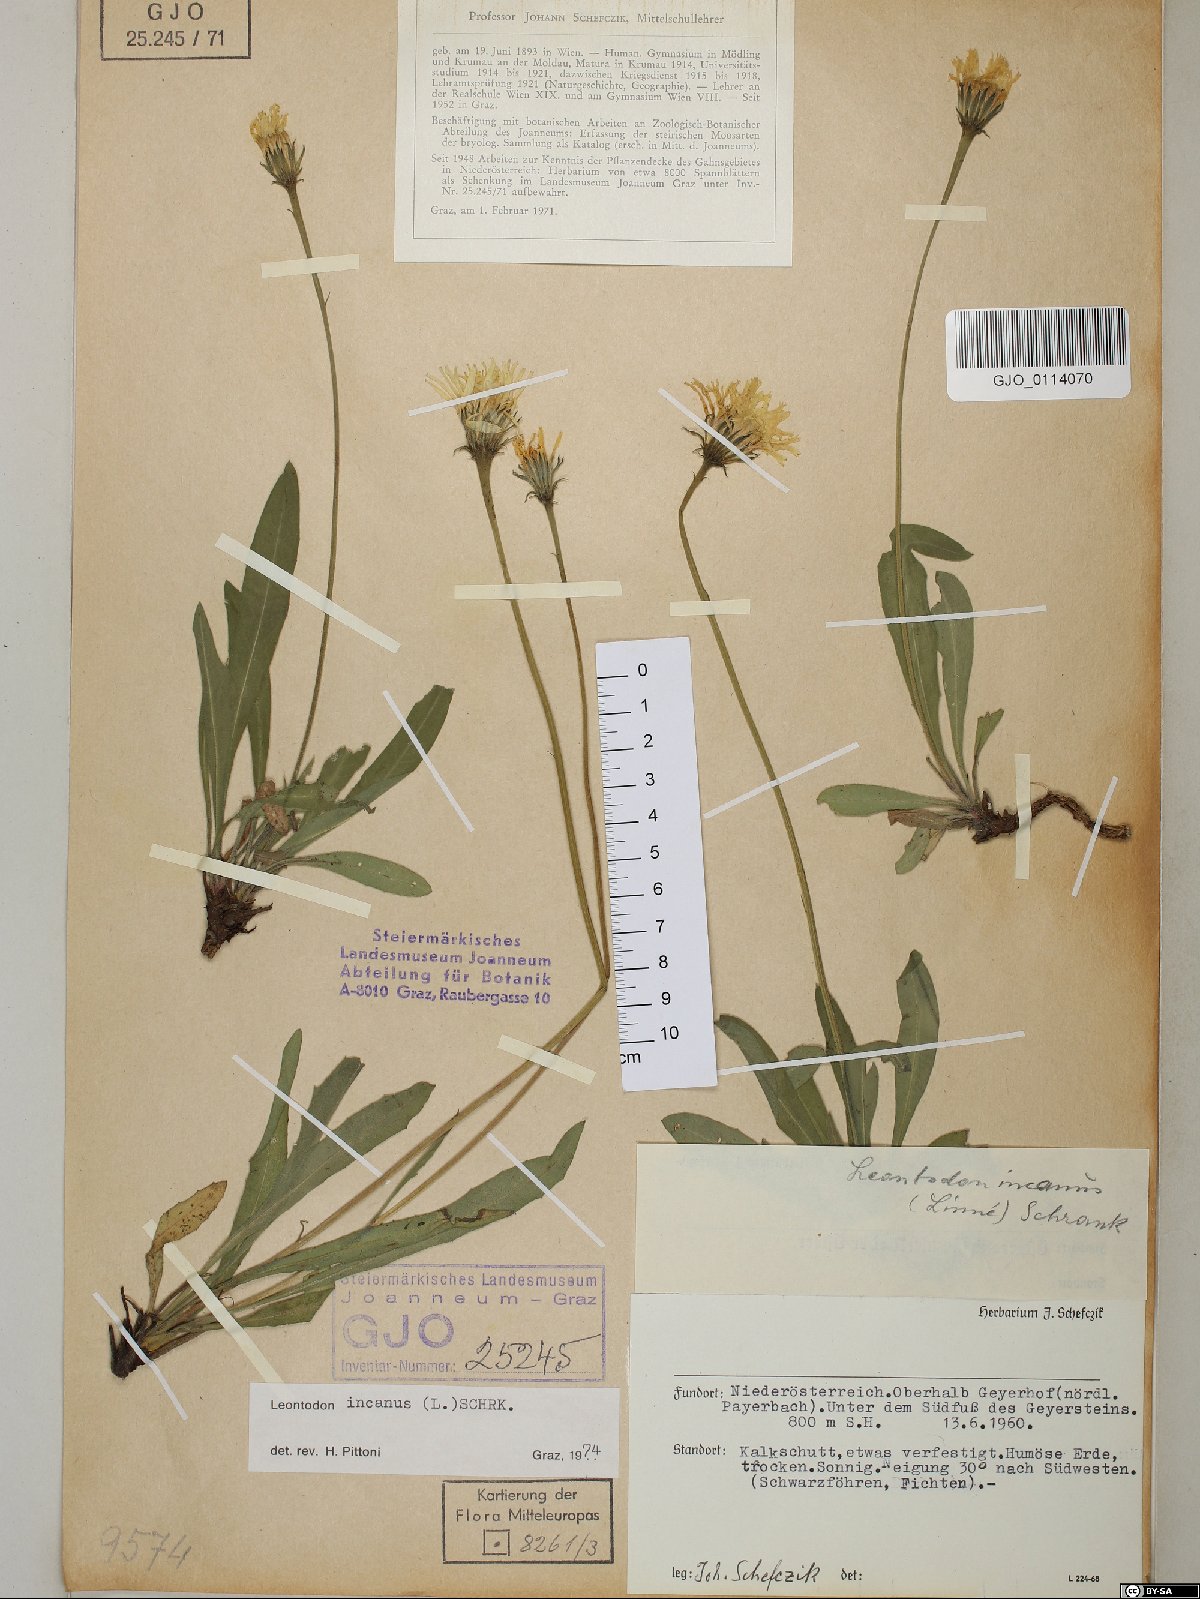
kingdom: Plantae
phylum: Tracheophyta
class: Magnoliopsida
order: Asterales
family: Asteraceae
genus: Leontodon
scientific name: Leontodon incanus
